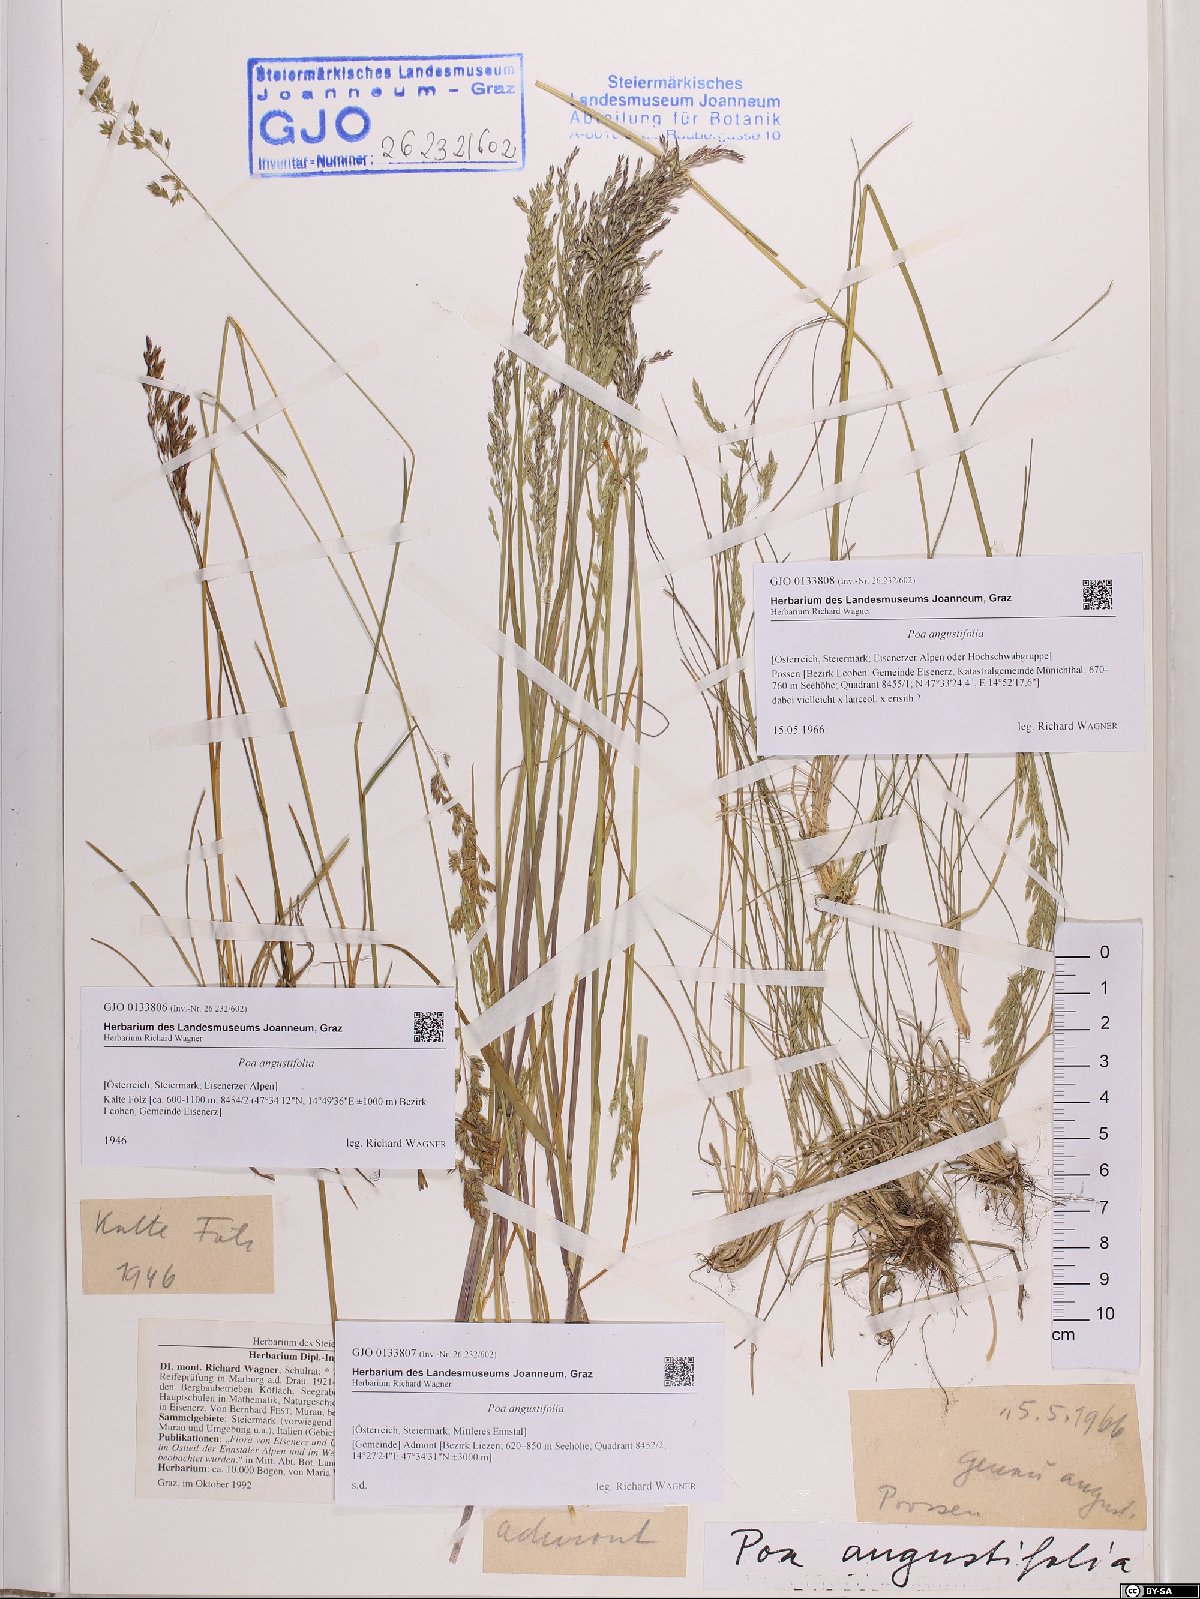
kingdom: Plantae
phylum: Tracheophyta
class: Liliopsida
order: Poales
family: Poaceae
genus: Poa
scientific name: Poa angustifolia
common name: Narrow-leaved meadow-grass
